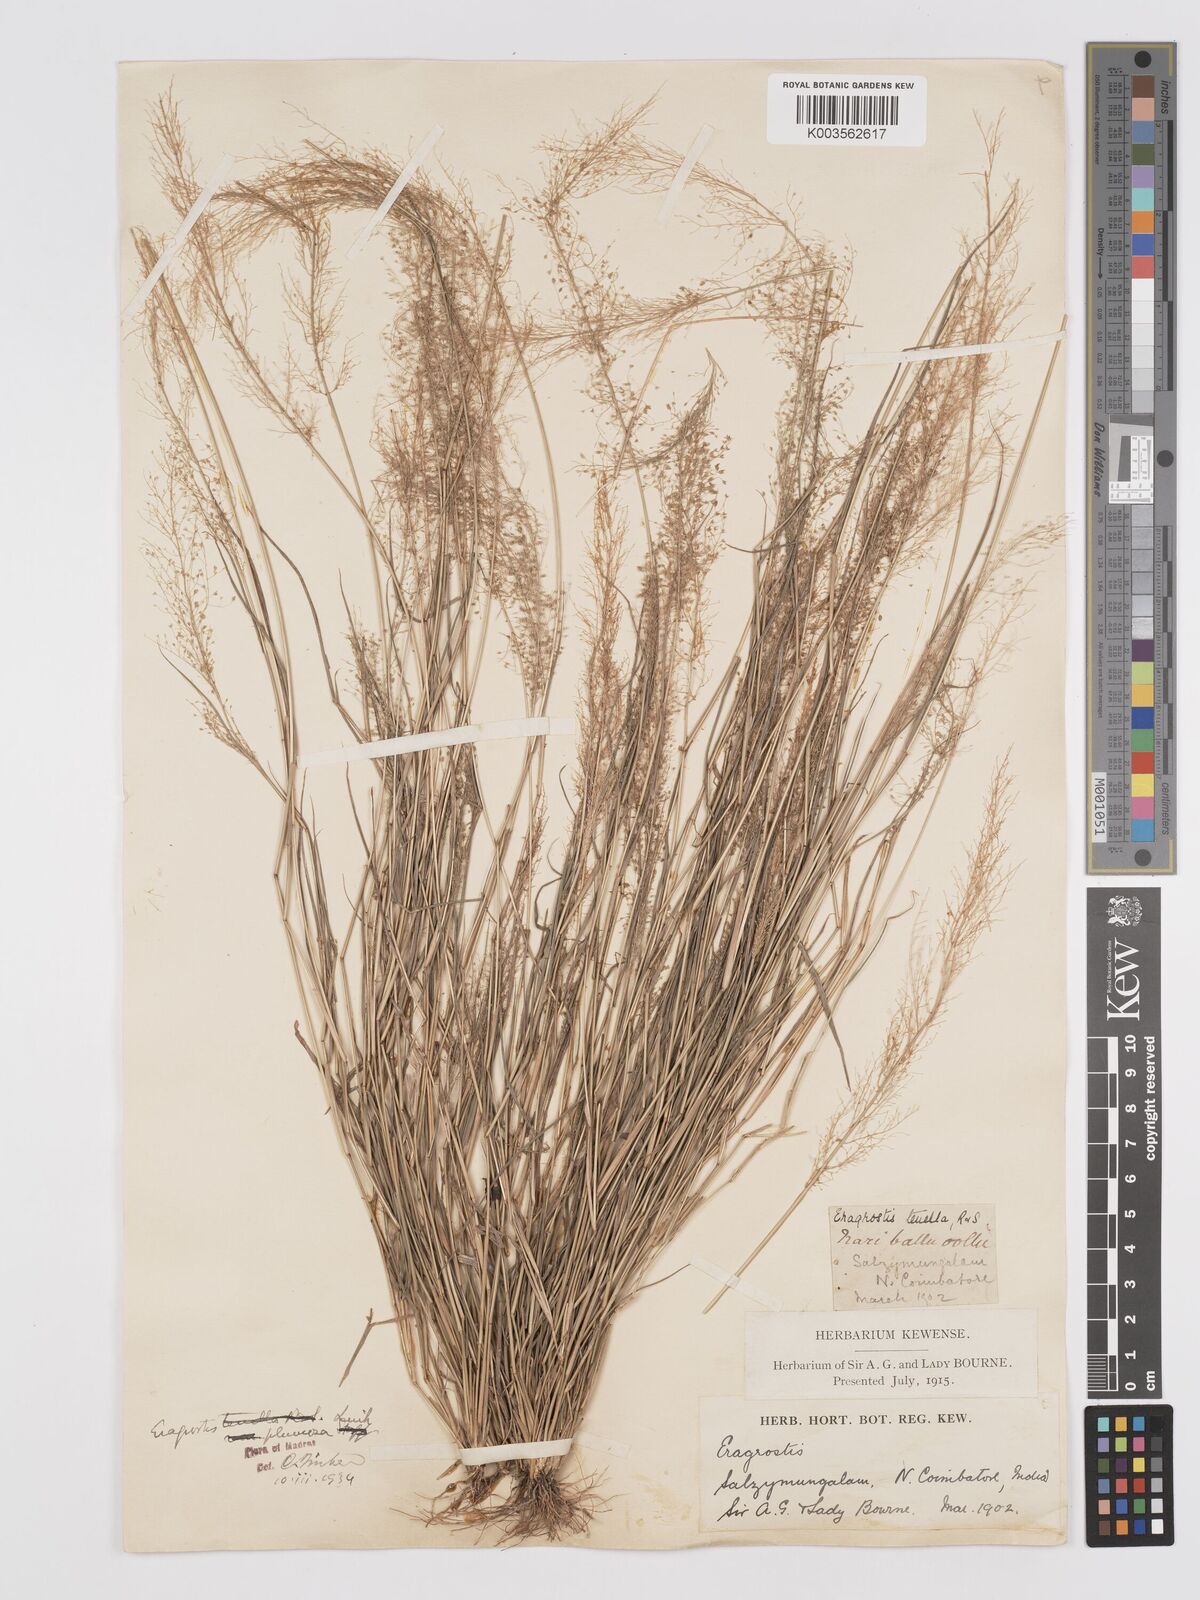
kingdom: Plantae
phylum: Tracheophyta
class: Liliopsida
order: Poales
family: Poaceae
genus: Eragrostis
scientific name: Eragrostis tenella
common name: Japanese lovegrass
